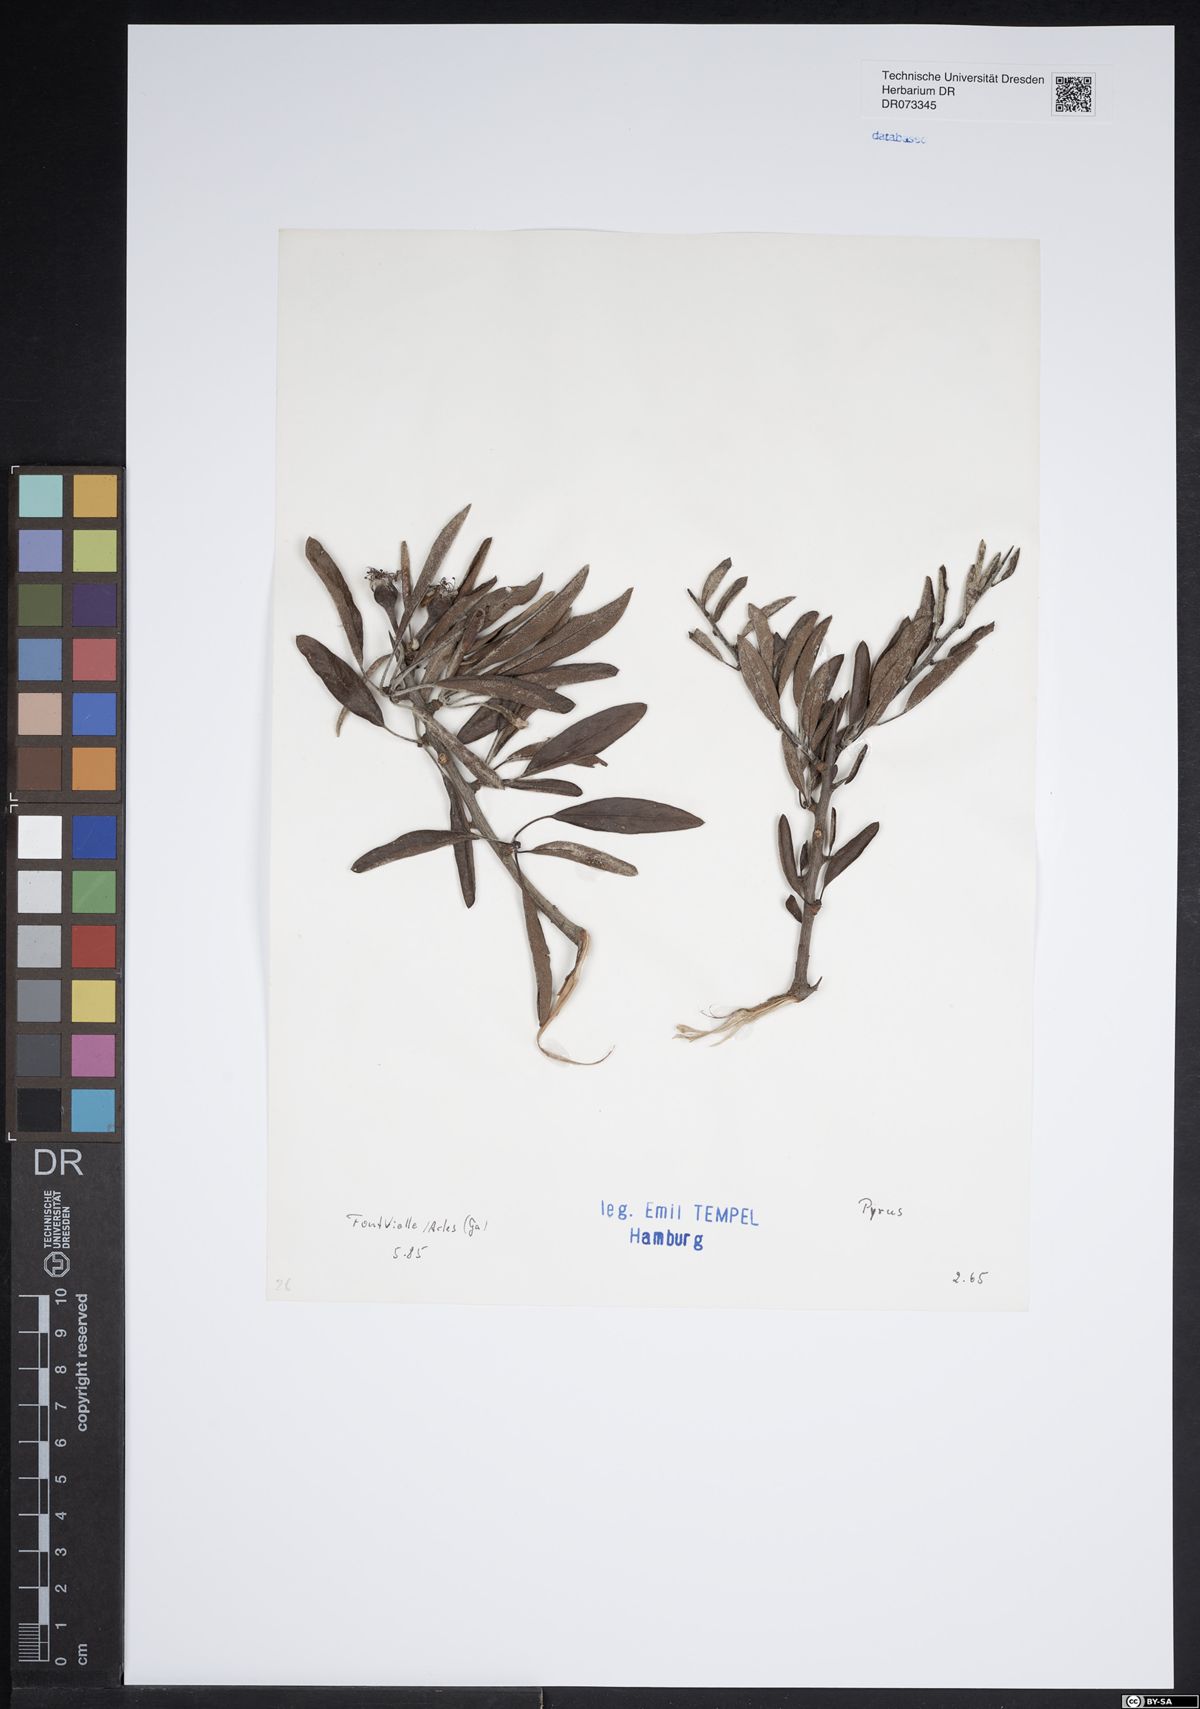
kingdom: Plantae
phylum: Tracheophyta
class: Magnoliopsida
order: Rosales
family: Rosaceae
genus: Pyrus
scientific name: Pyrus
